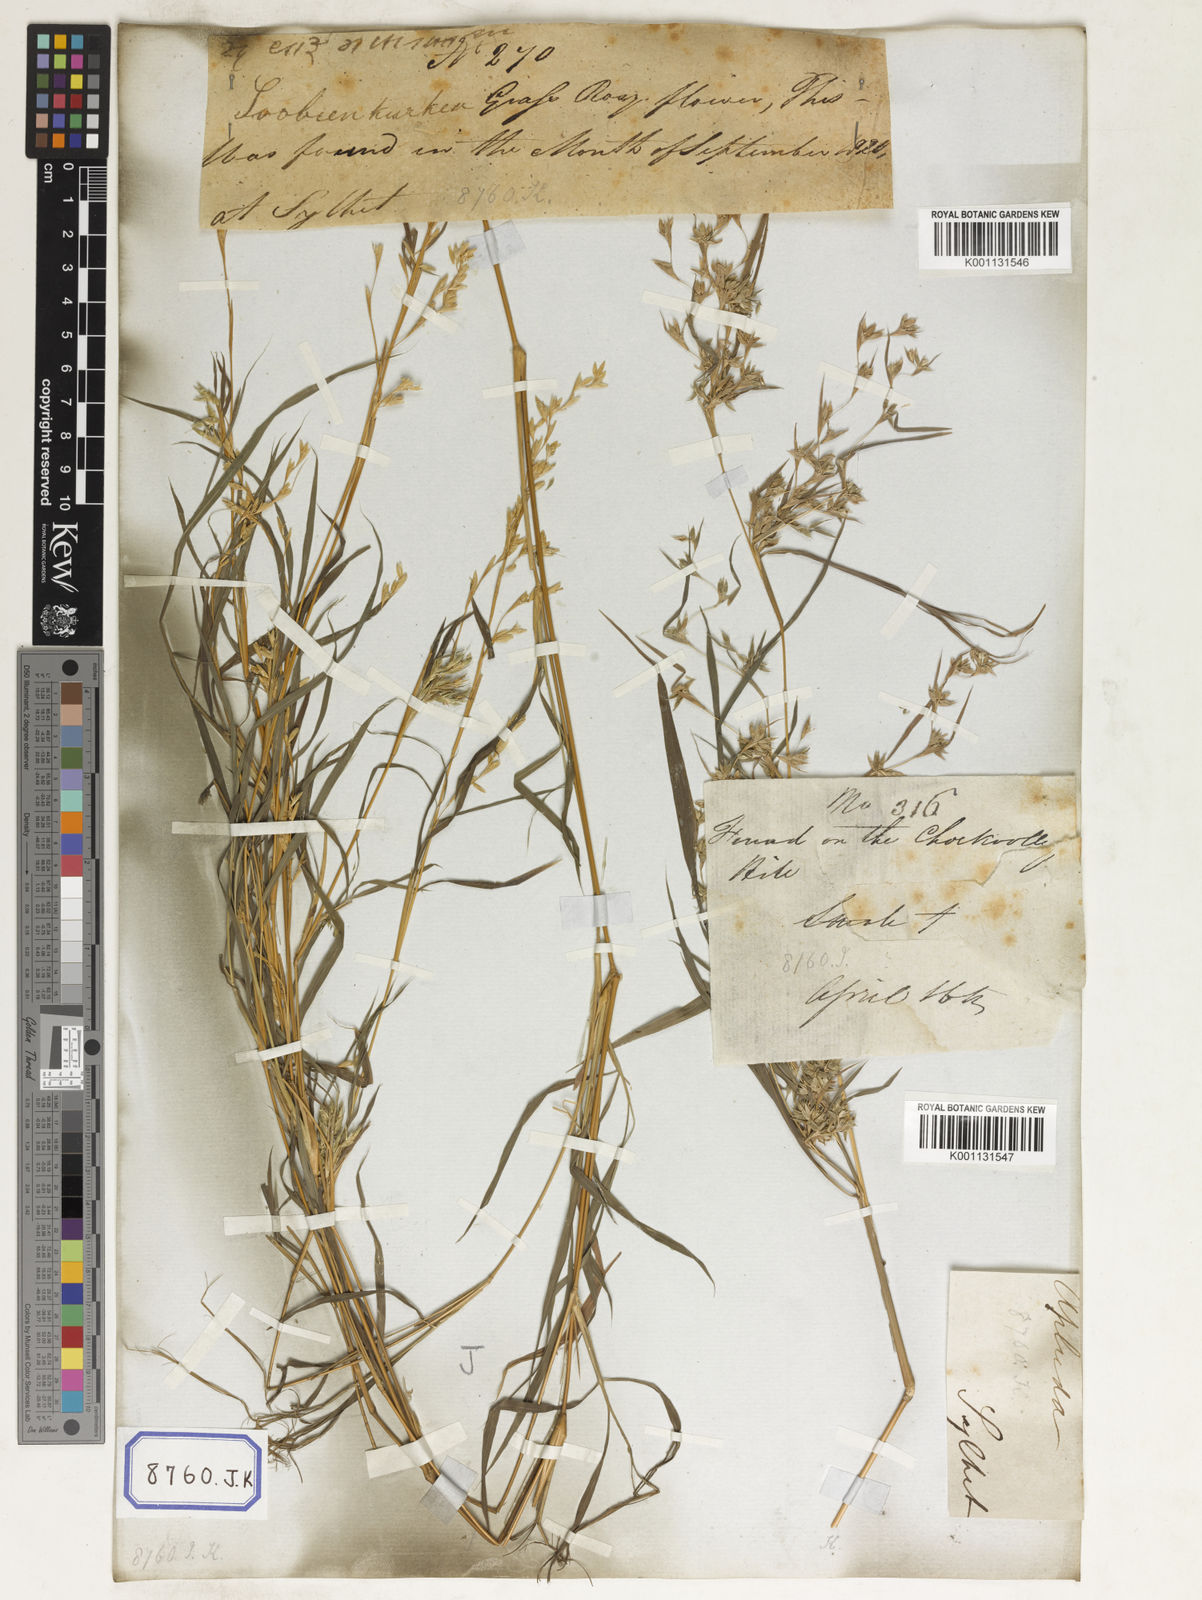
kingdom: Plantae
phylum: Tracheophyta
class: Liliopsida
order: Poales
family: Poaceae
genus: Apluda
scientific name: Apluda
